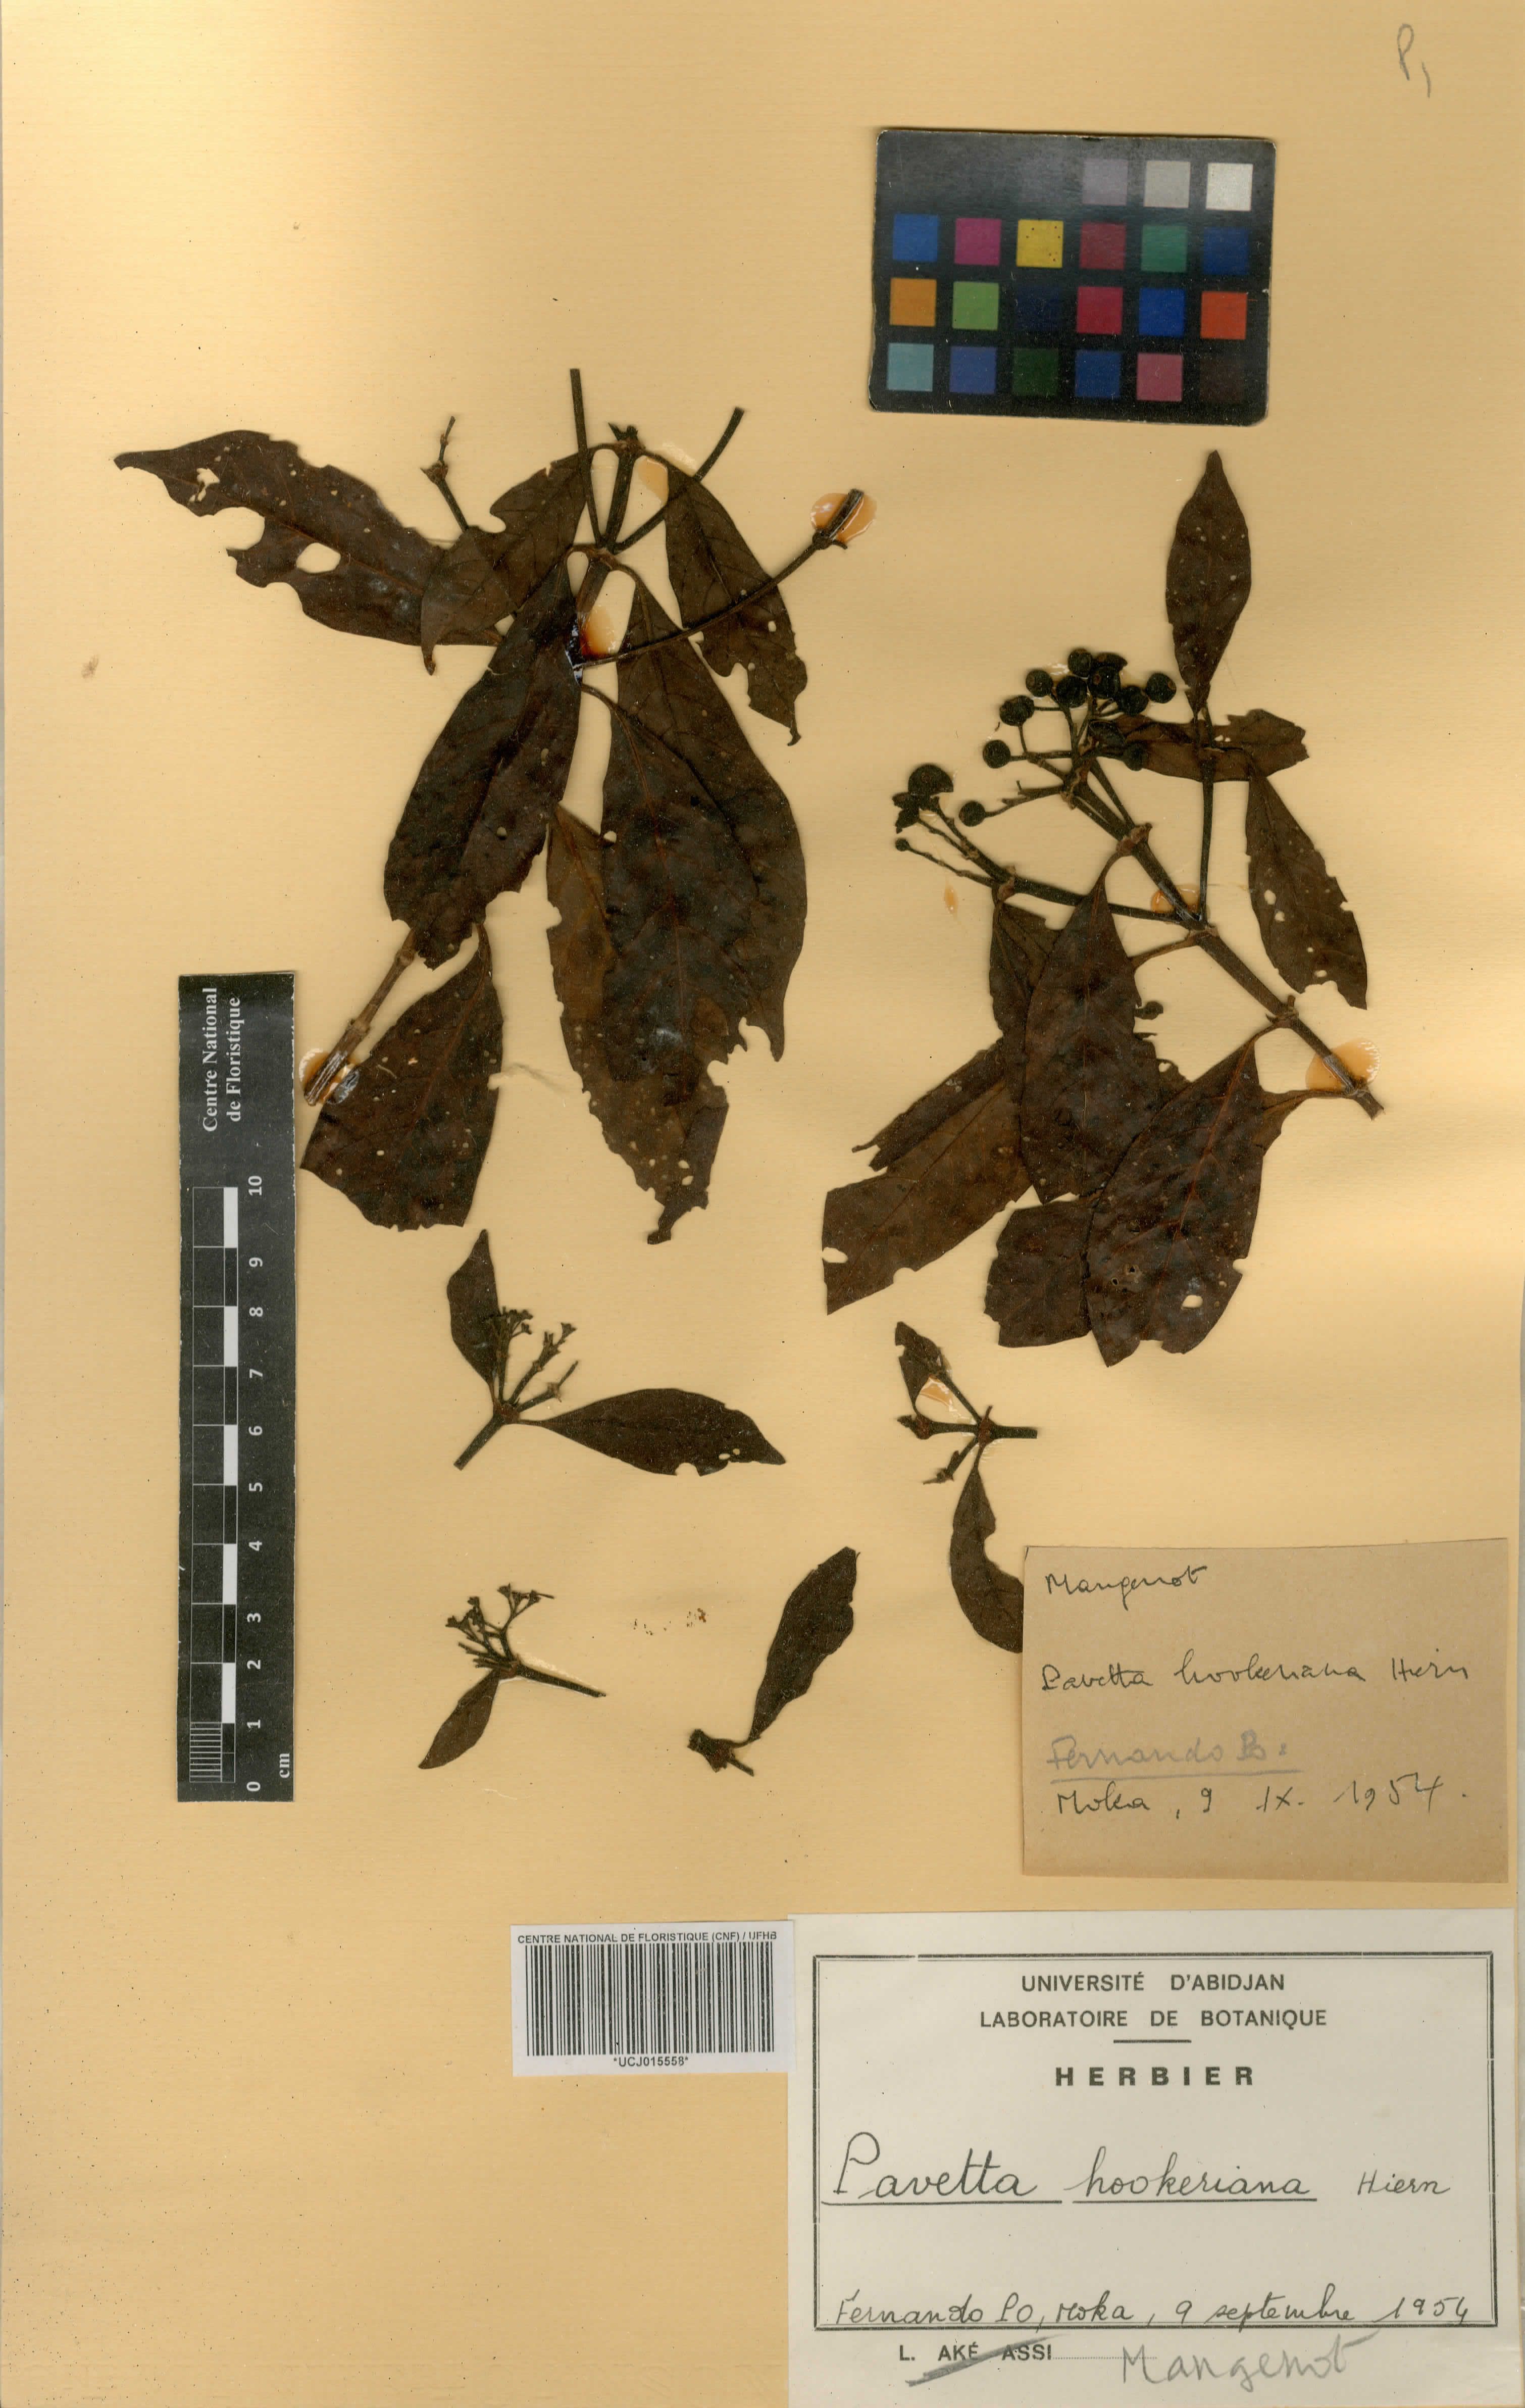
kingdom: Plantae
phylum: Tracheophyta
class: Magnoliopsida
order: Gentianales
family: Rubiaceae
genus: Pavetta
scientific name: Pavetta hookeriana
